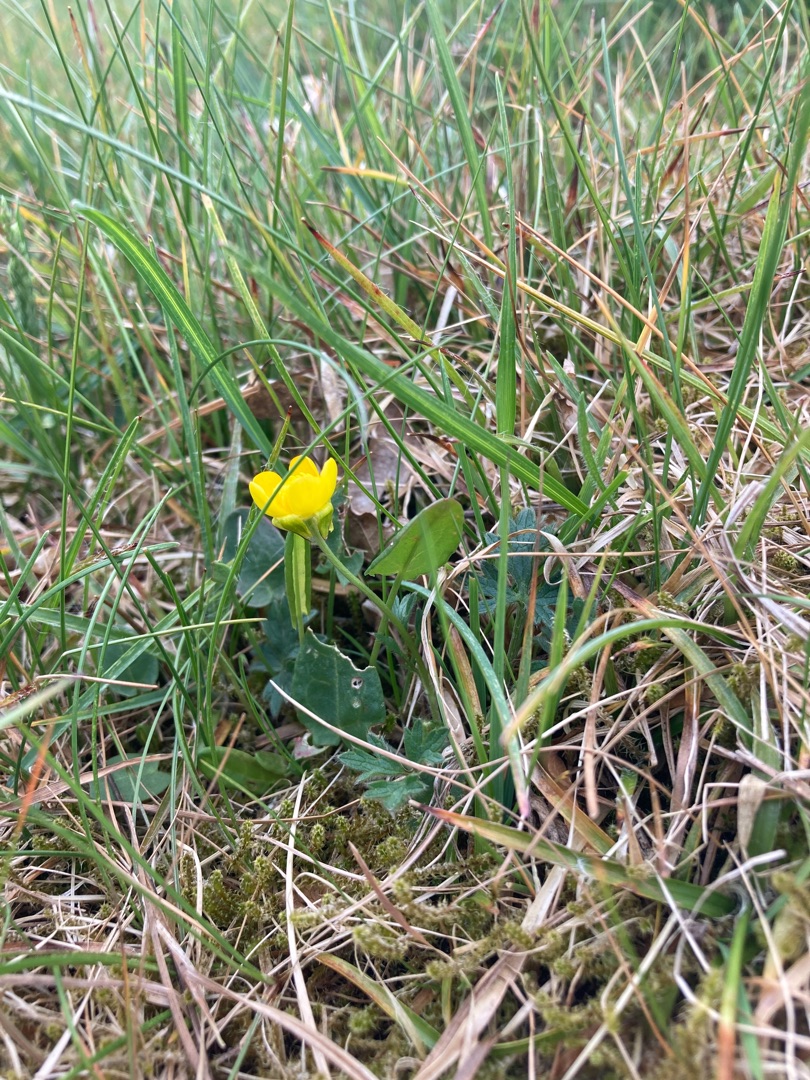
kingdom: Plantae
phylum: Tracheophyta
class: Magnoliopsida
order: Ranunculales
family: Ranunculaceae
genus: Ranunculus
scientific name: Ranunculus bulbosus
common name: Knold-ranunkel
